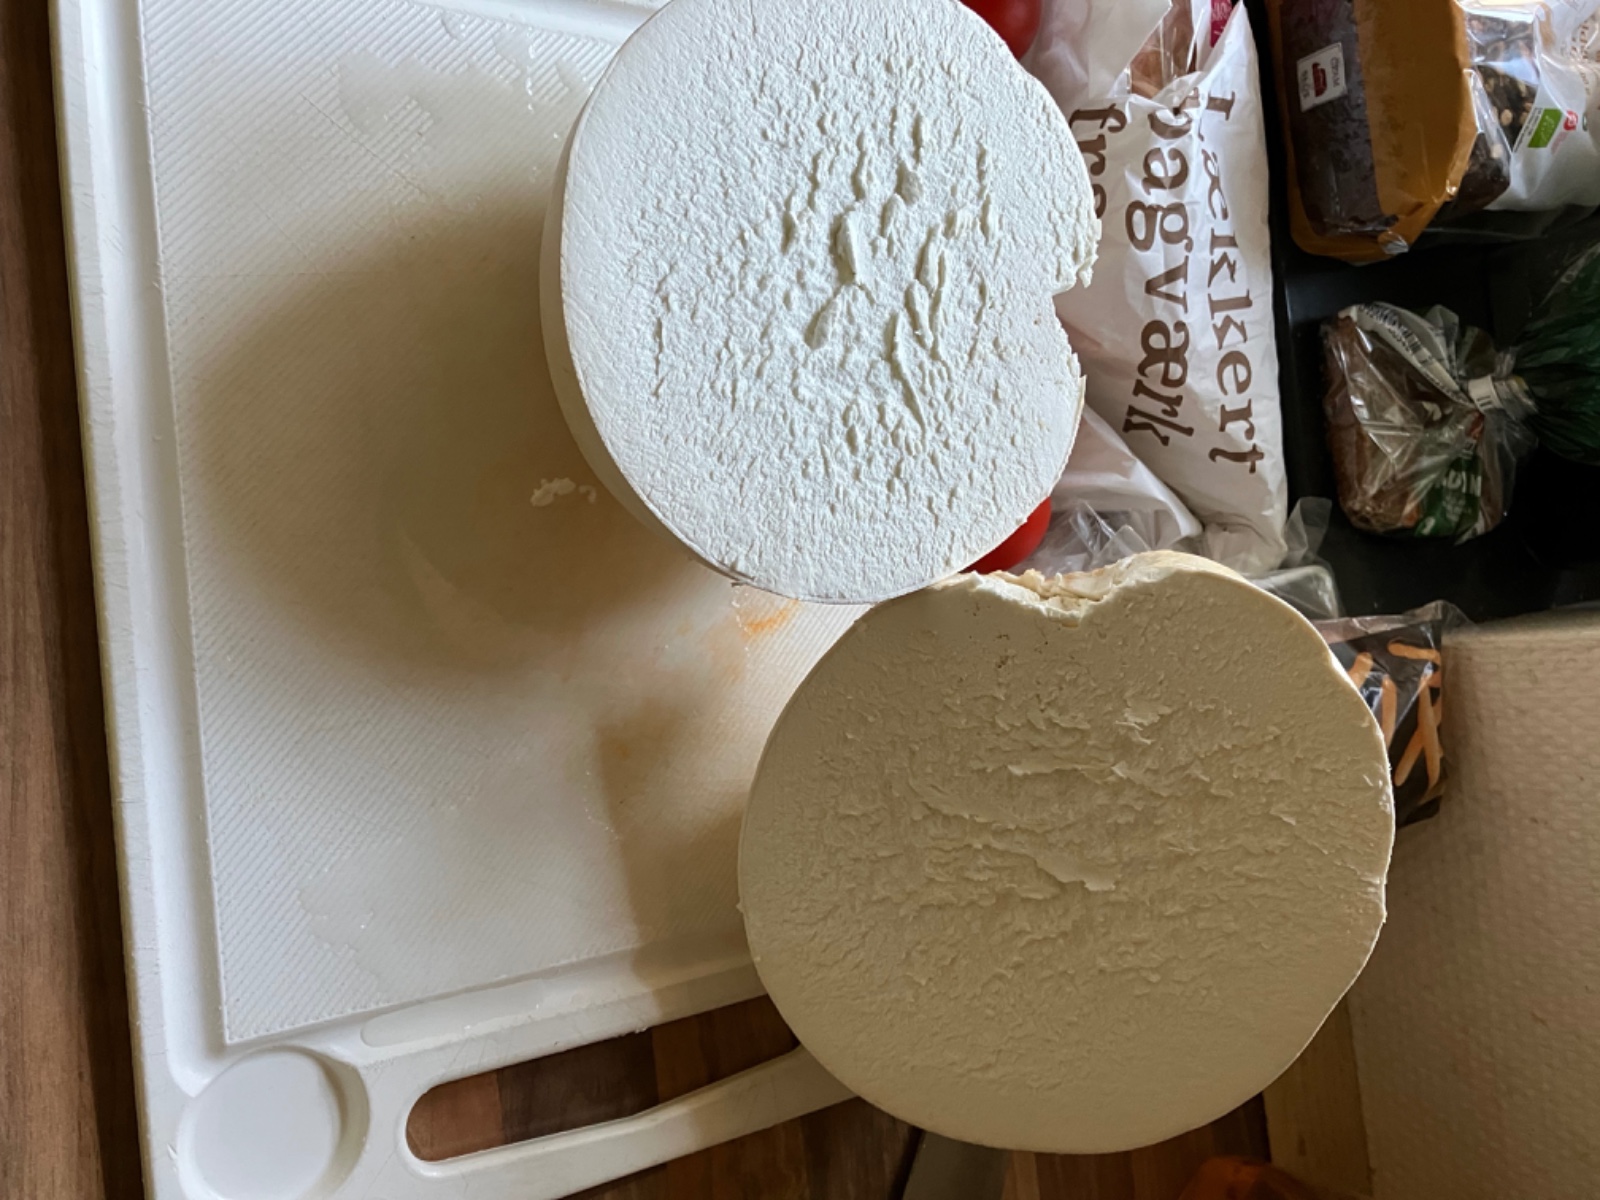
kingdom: Fungi
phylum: Basidiomycota
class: Agaricomycetes
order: Agaricales
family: Lycoperdaceae
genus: Calvatia
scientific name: Calvatia gigantea
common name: kæmpestøvbold
